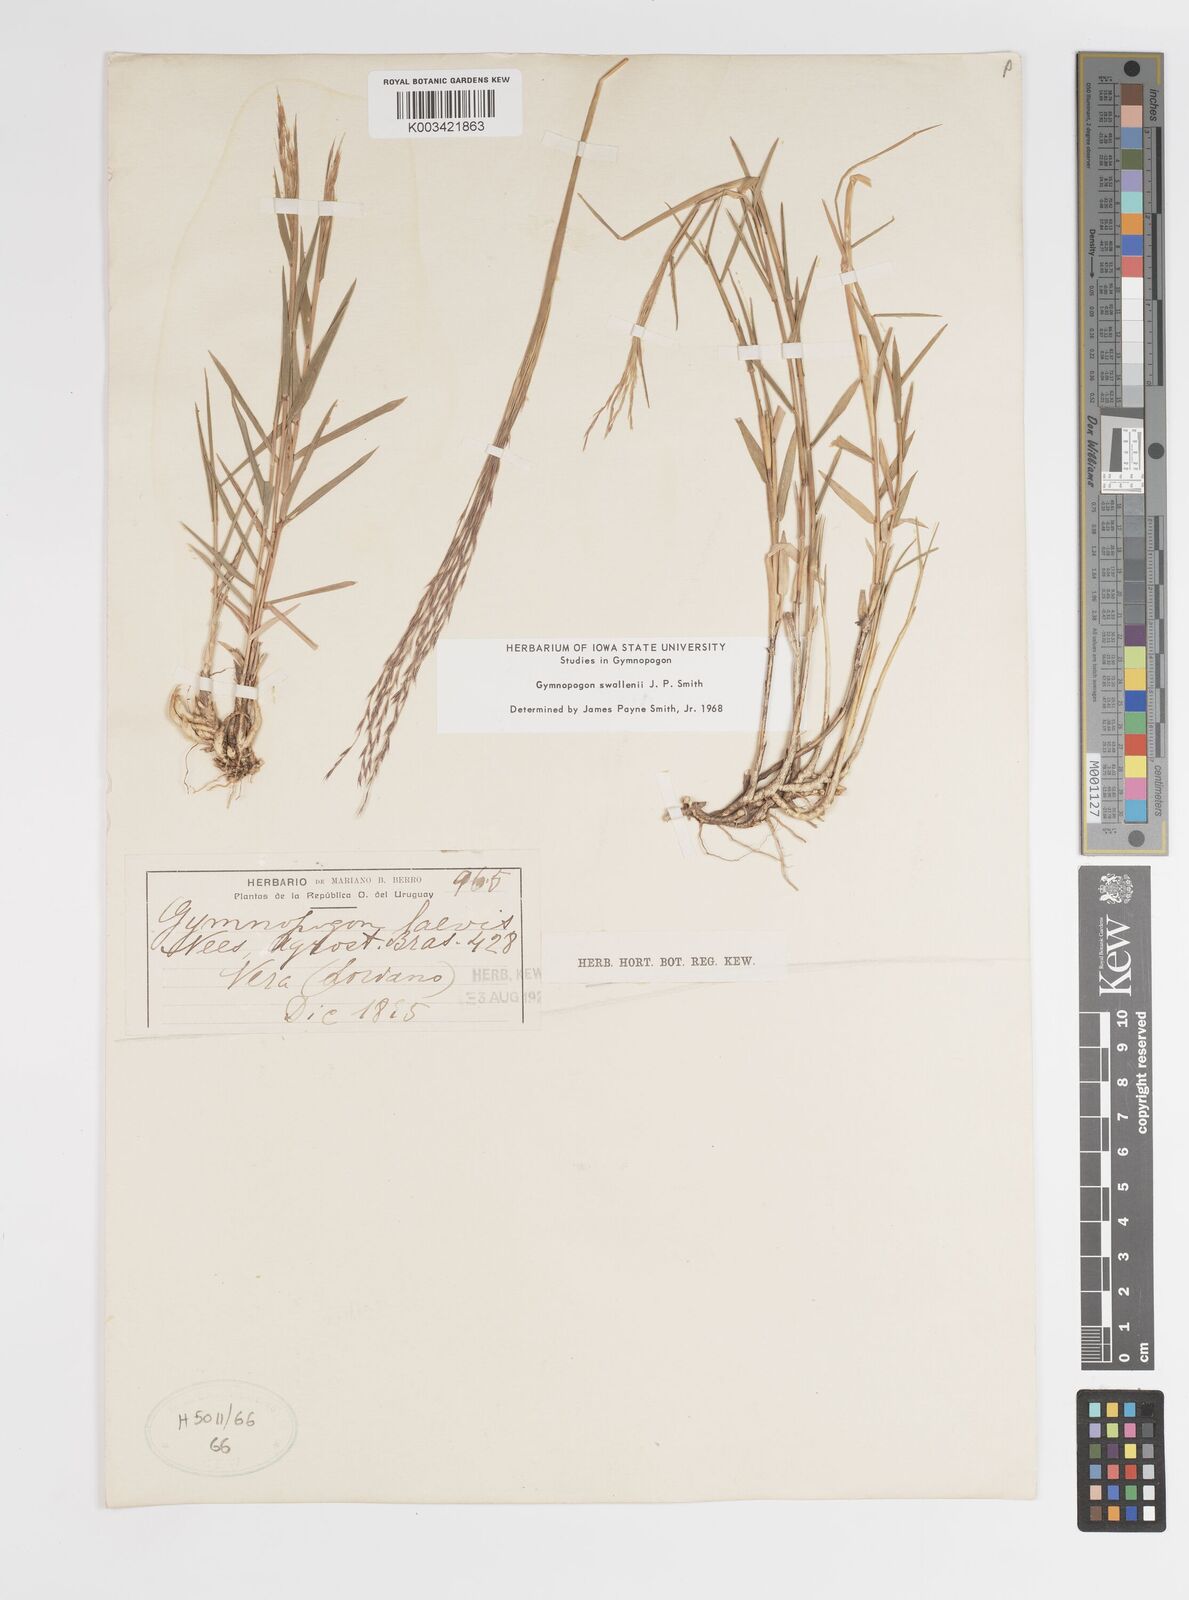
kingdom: Plantae
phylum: Tracheophyta
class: Liliopsida
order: Poales
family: Poaceae
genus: Gymnopogon
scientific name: Gymnopogon legrandii
